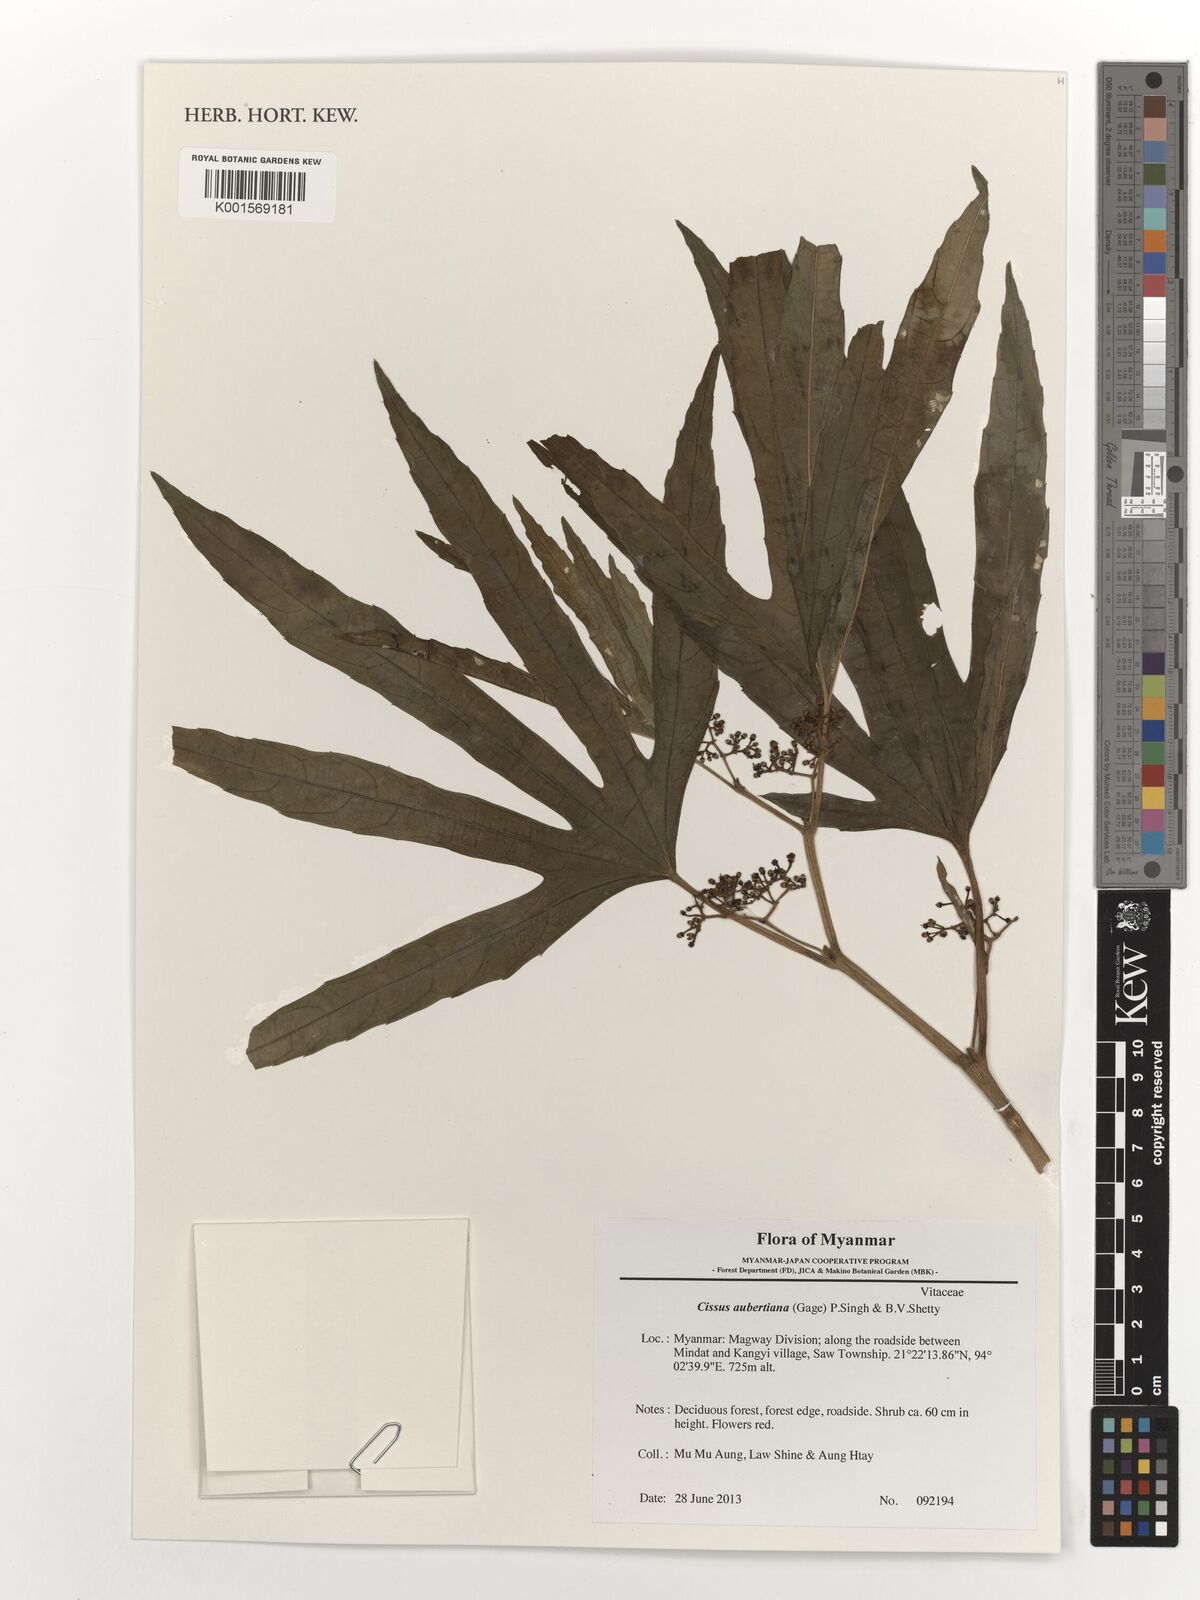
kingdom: Plantae
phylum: Tracheophyta
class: Magnoliopsida
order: Vitales
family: Vitaceae
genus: Cissus
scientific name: Cissus aubertiana
